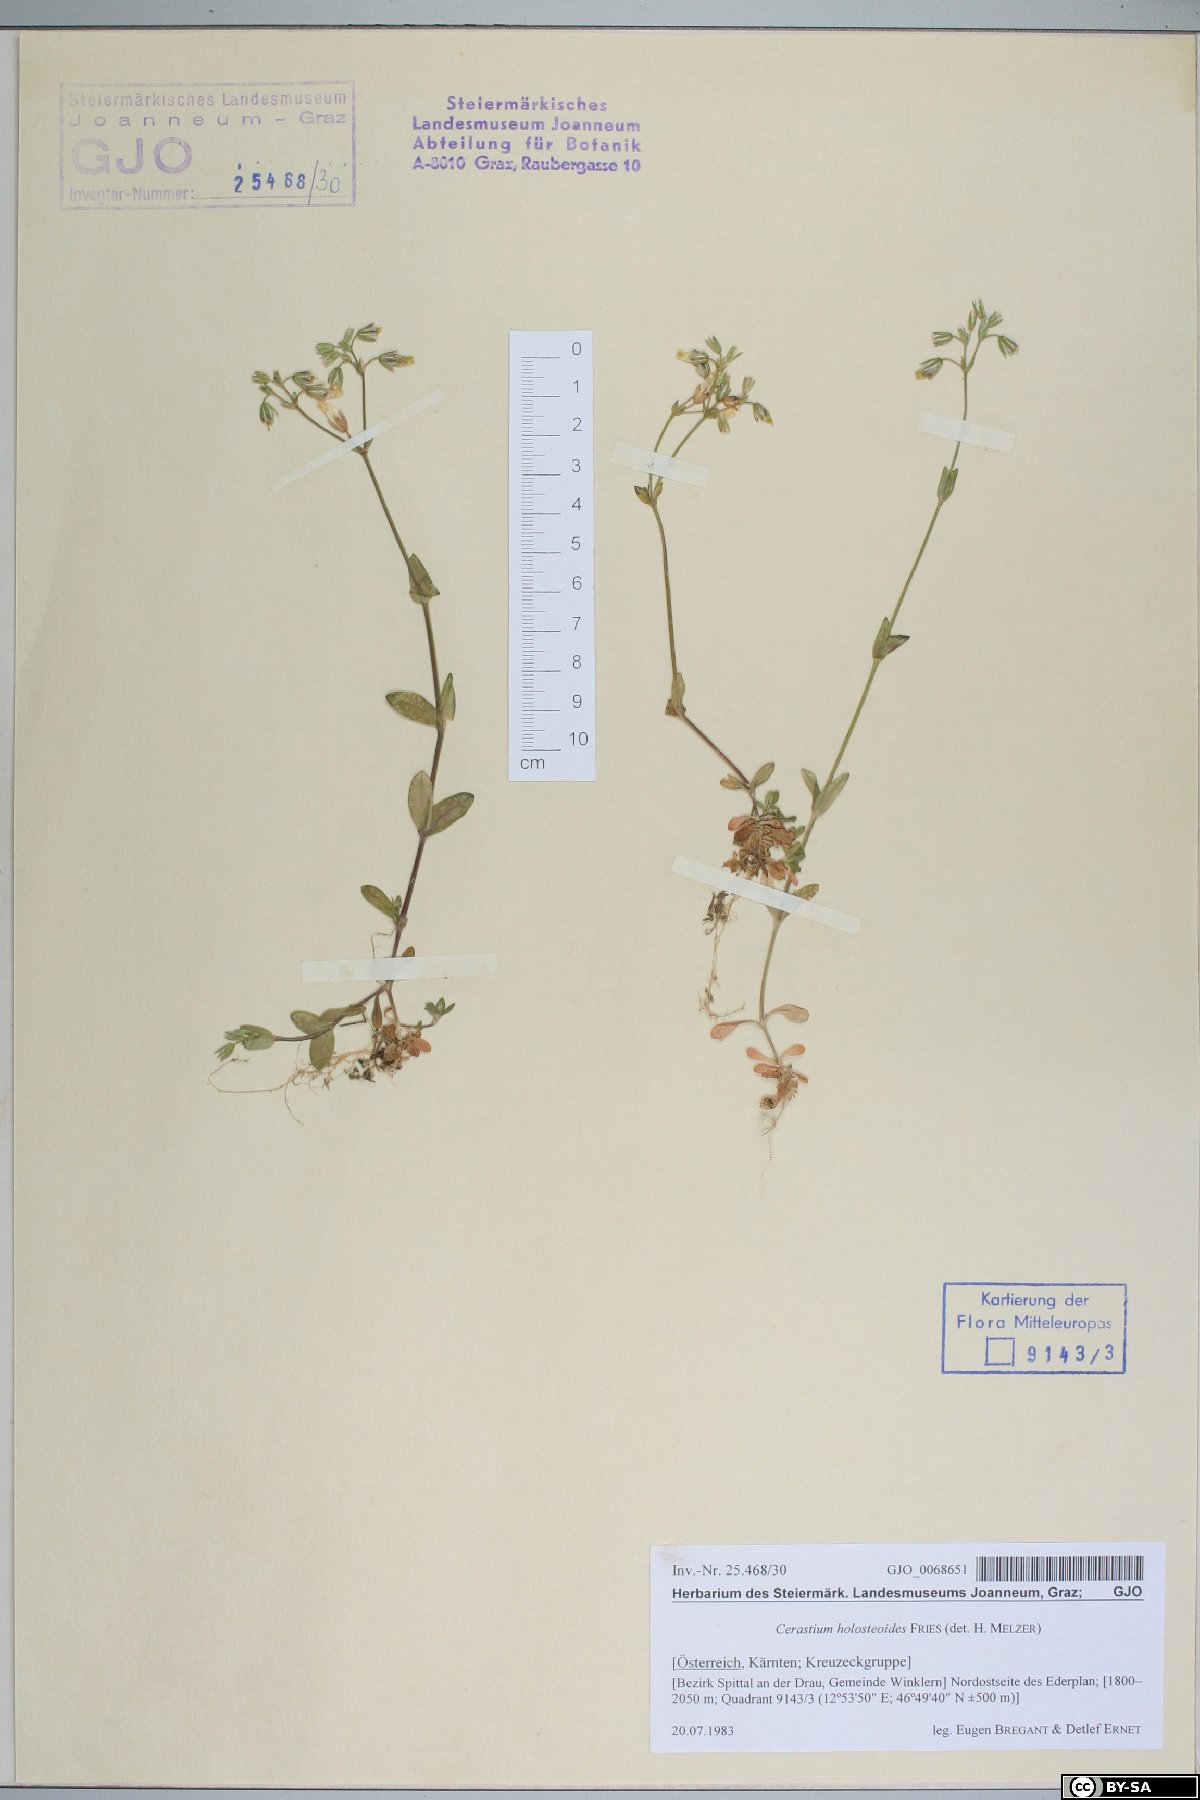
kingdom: Plantae
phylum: Tracheophyta
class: Magnoliopsida
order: Caryophyllales
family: Caryophyllaceae
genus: Cerastium
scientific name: Cerastium holosteoides
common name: Big chickweed
